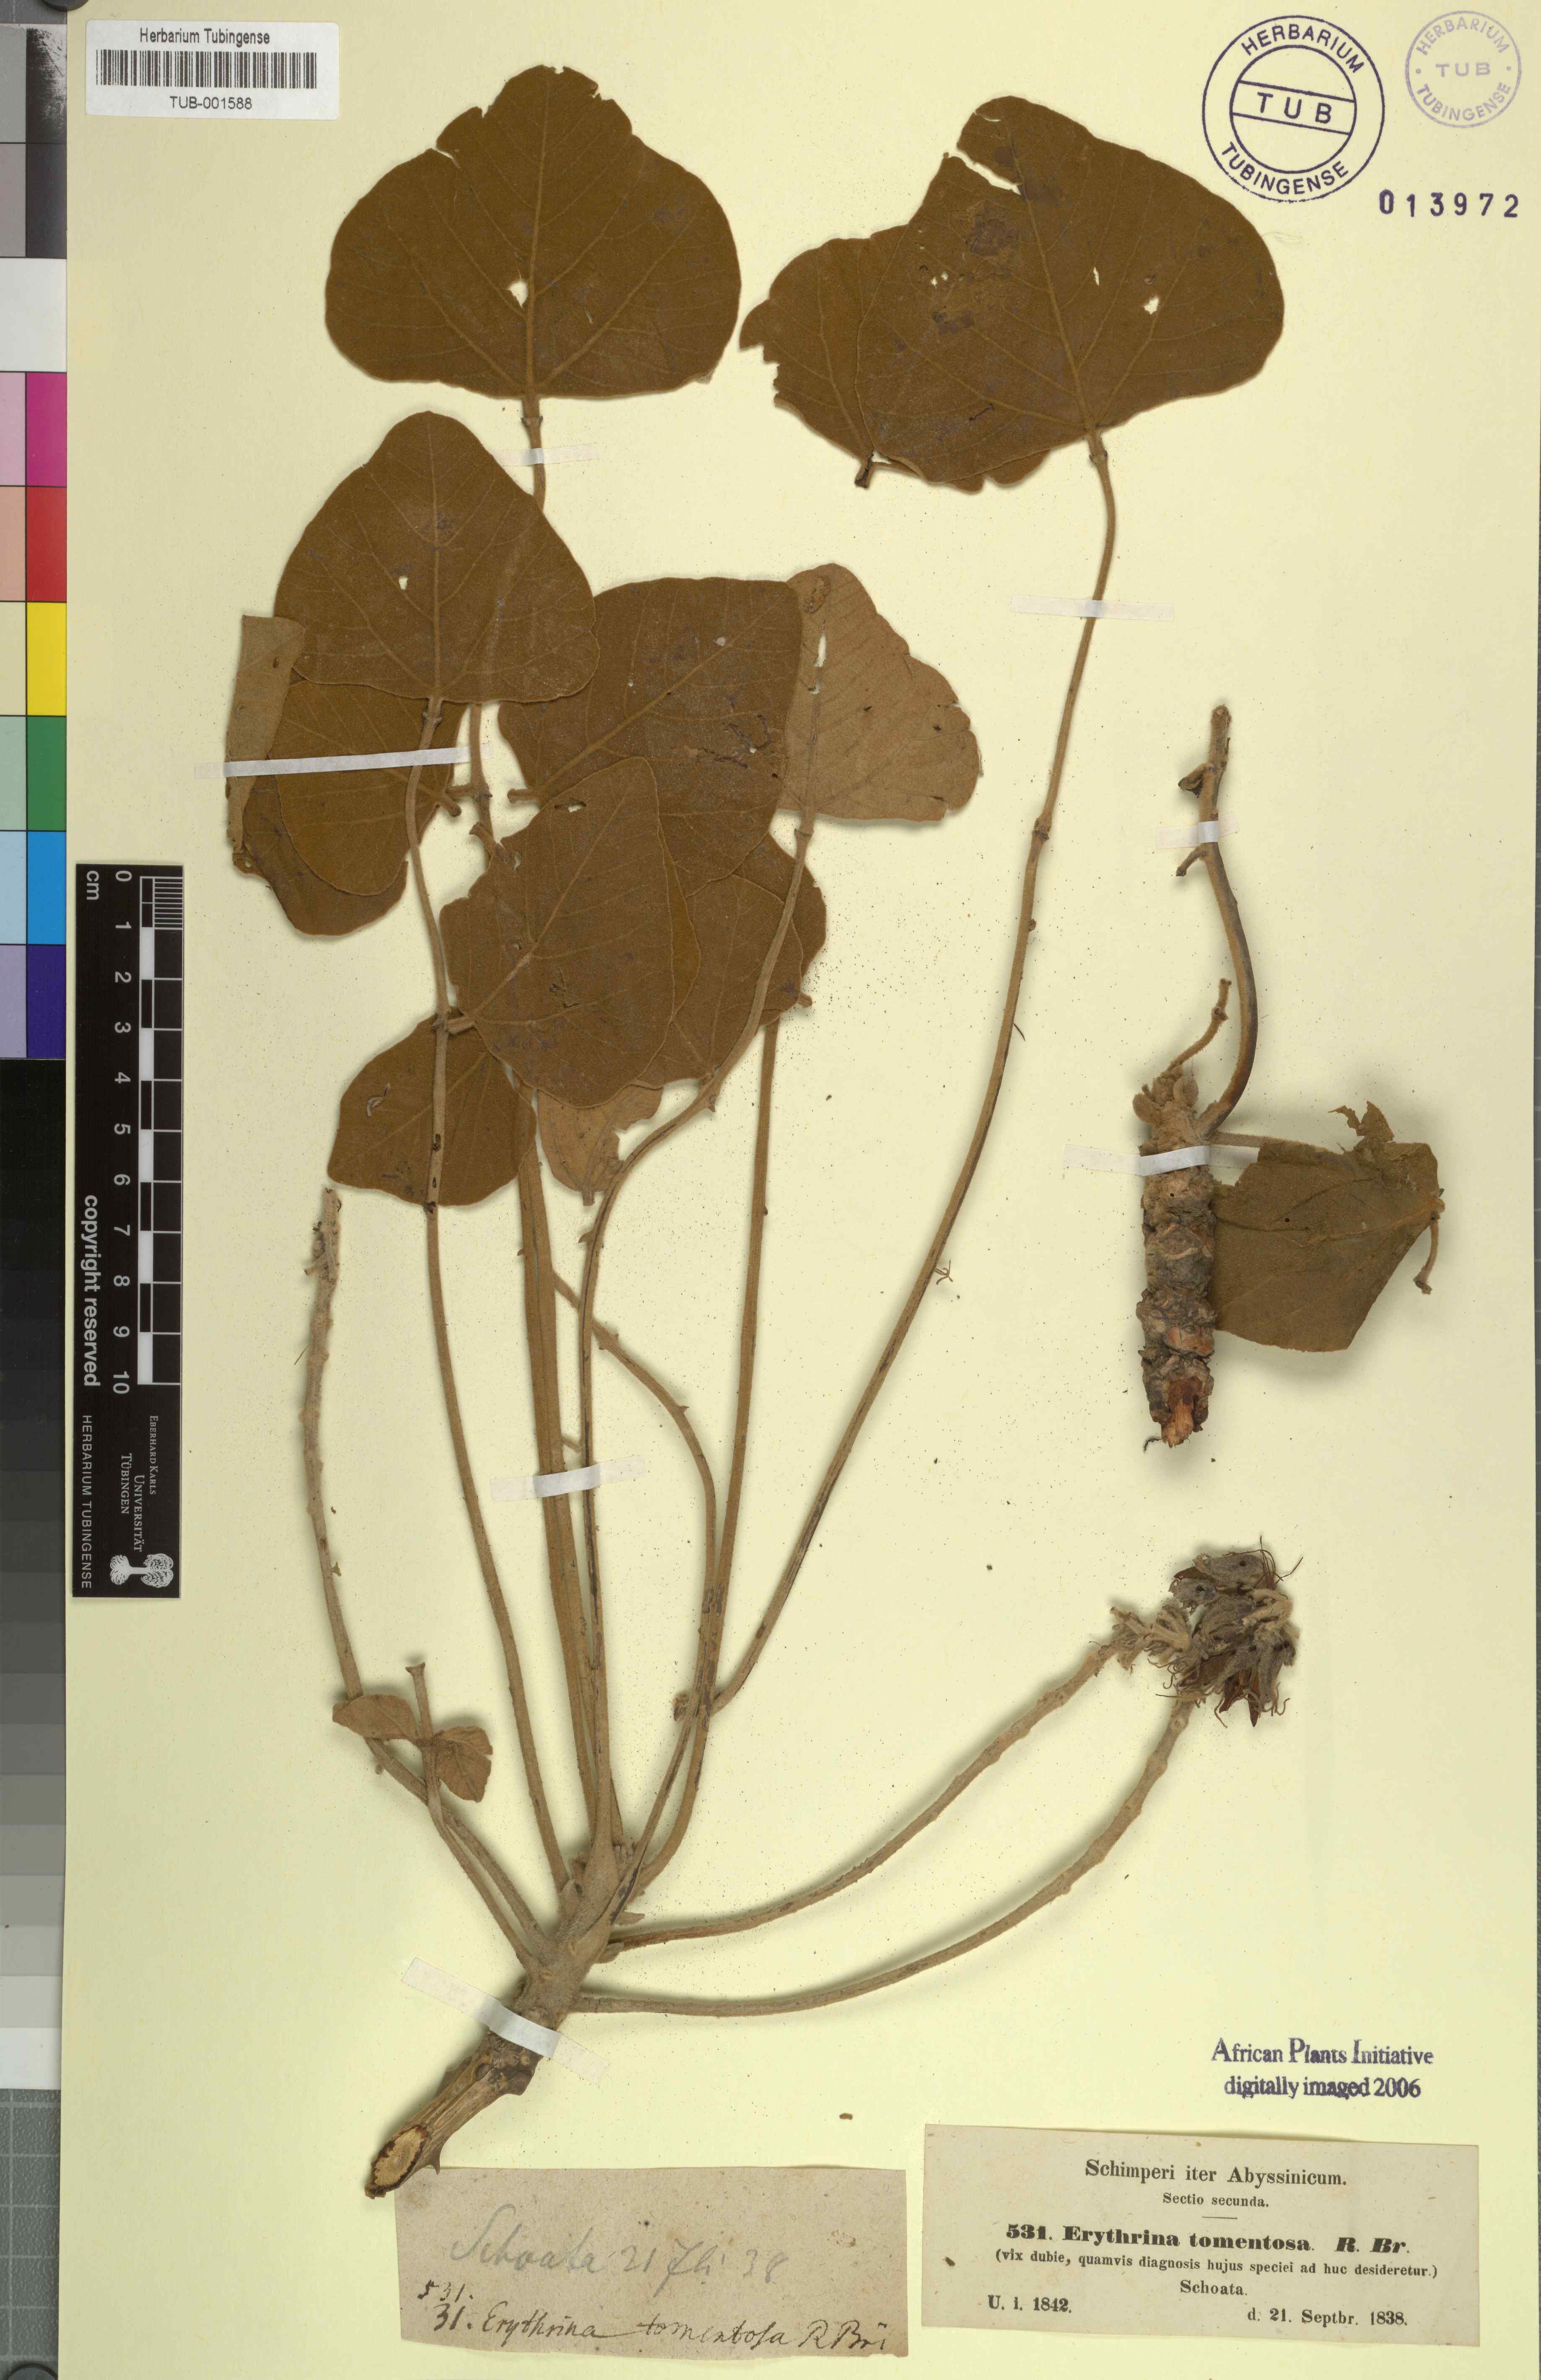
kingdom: Plantae
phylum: Tracheophyta
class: Magnoliopsida
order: Fabales
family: Fabaceae
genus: Erythrina
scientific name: Erythrina abyssinica
